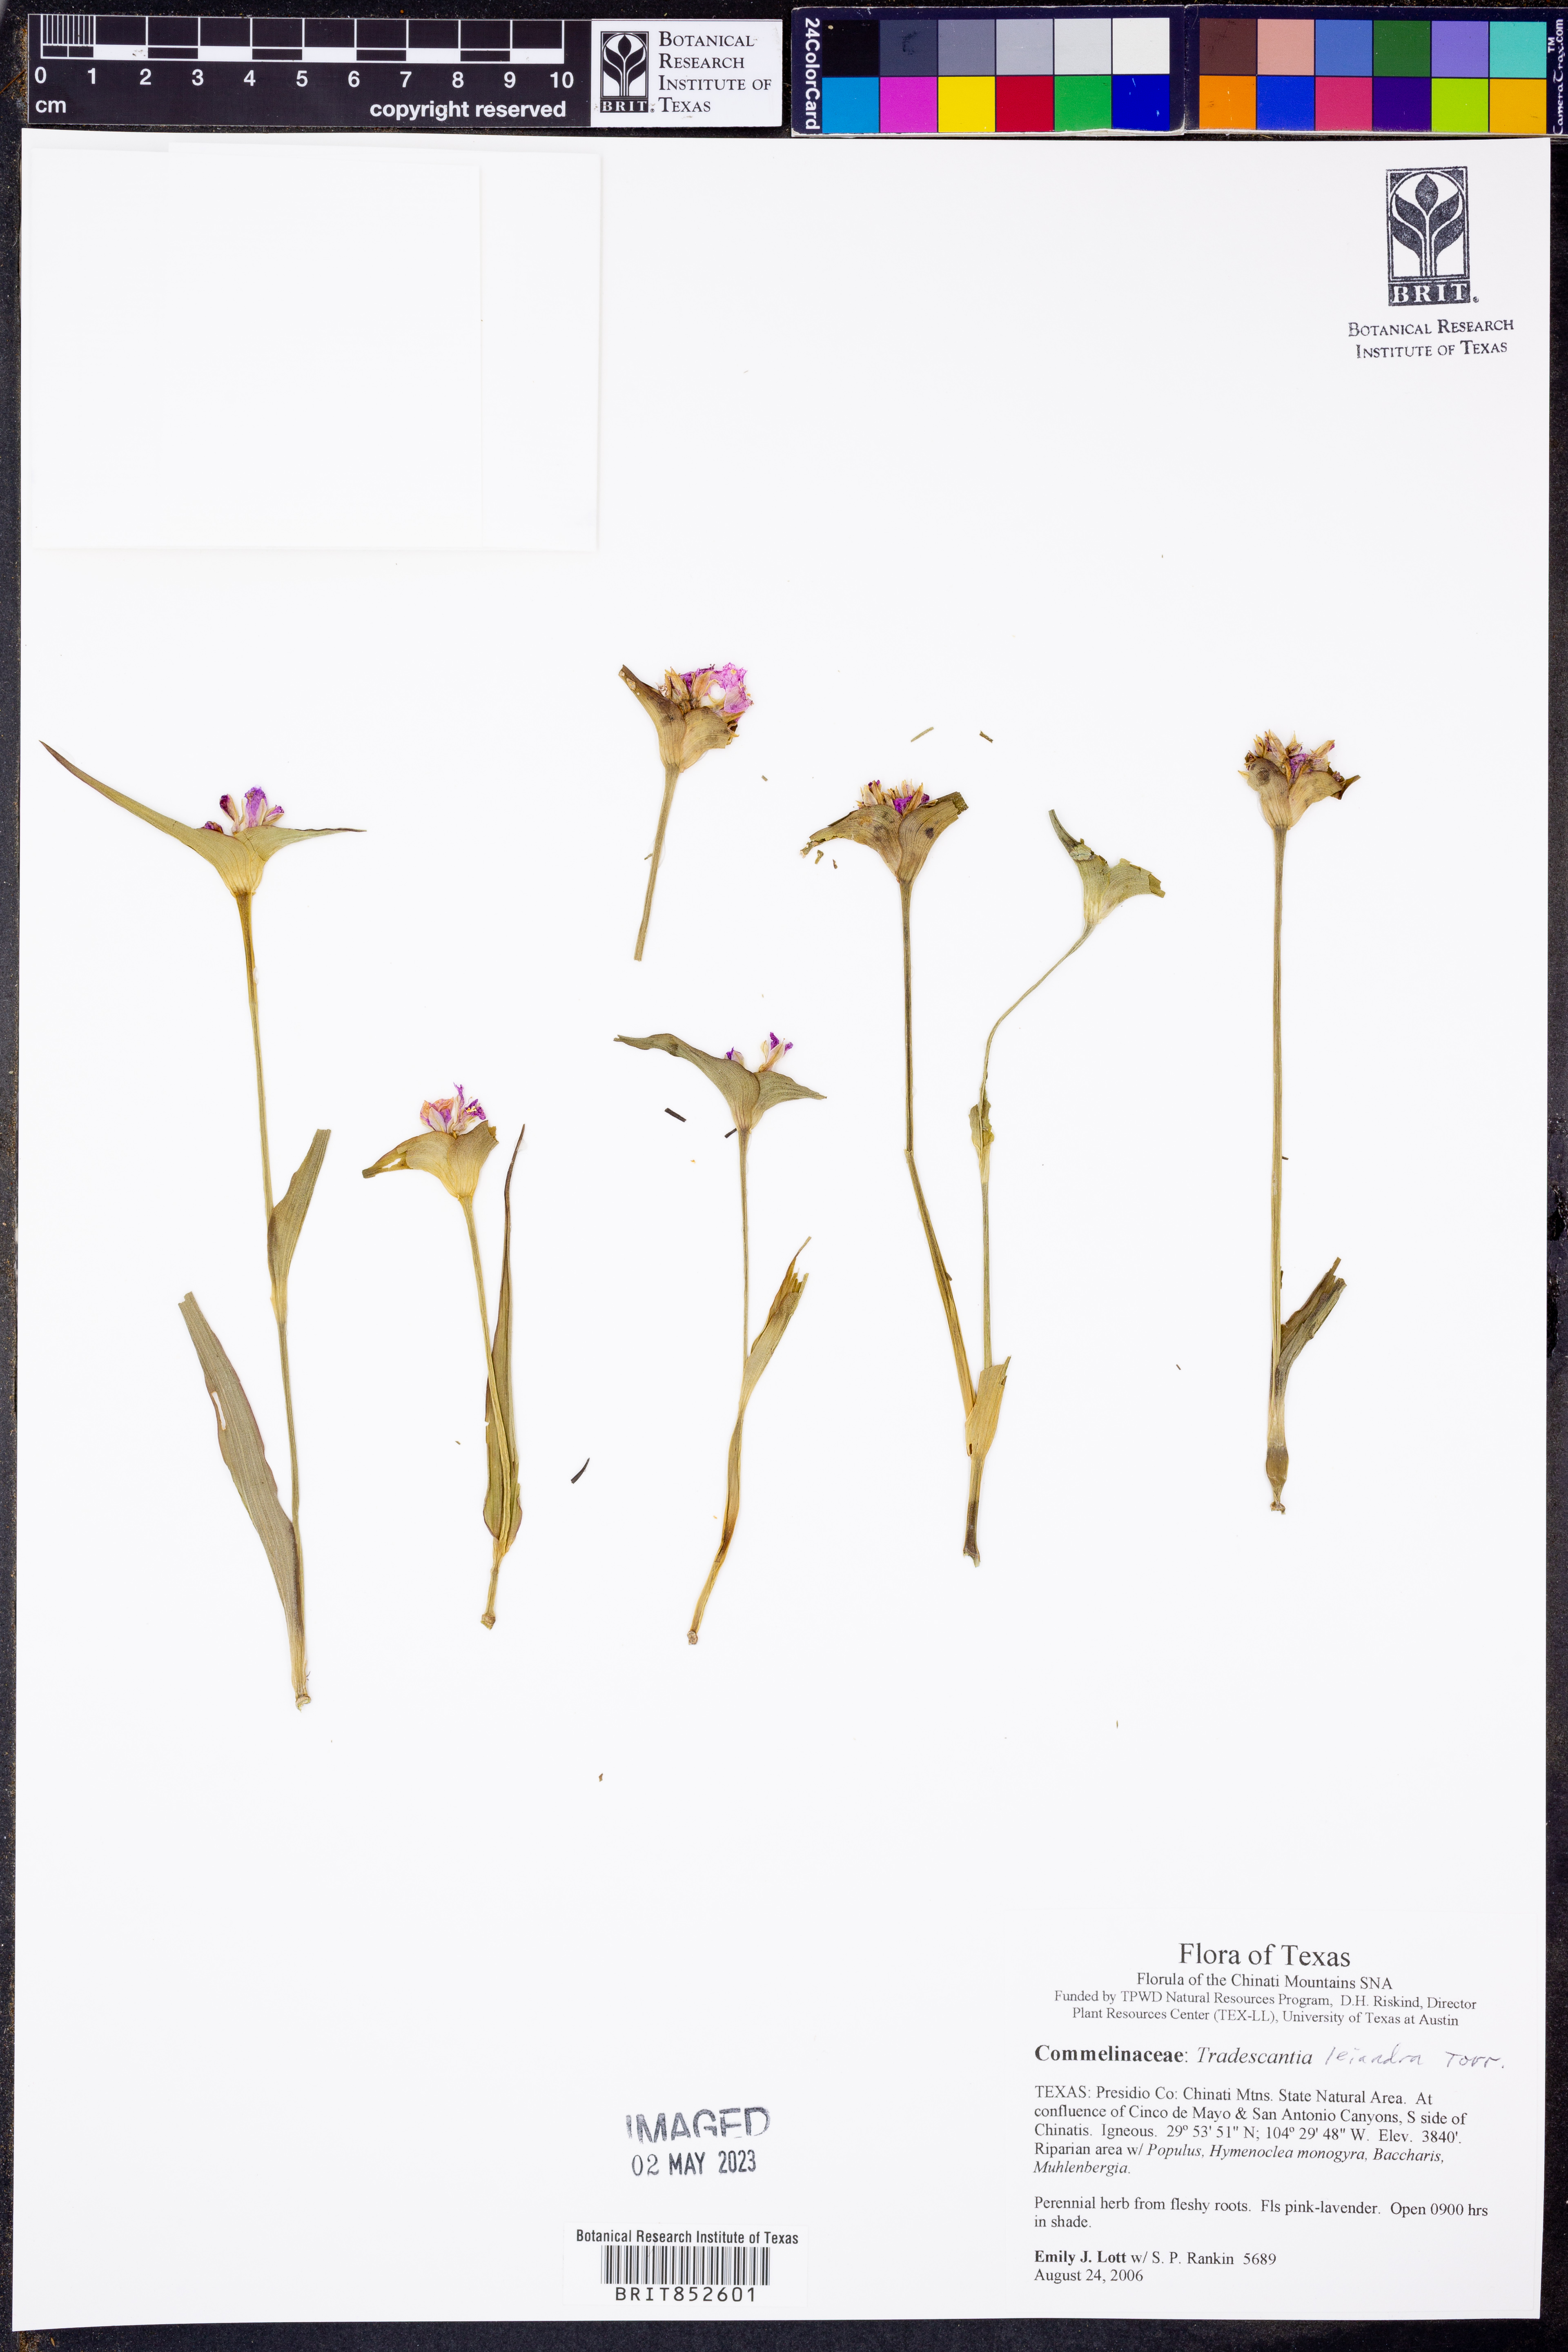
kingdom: Plantae
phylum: Tracheophyta
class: Liliopsida
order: Commelinales
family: Commelinaceae
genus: Tradescantia
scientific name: Tradescantia leiandra
